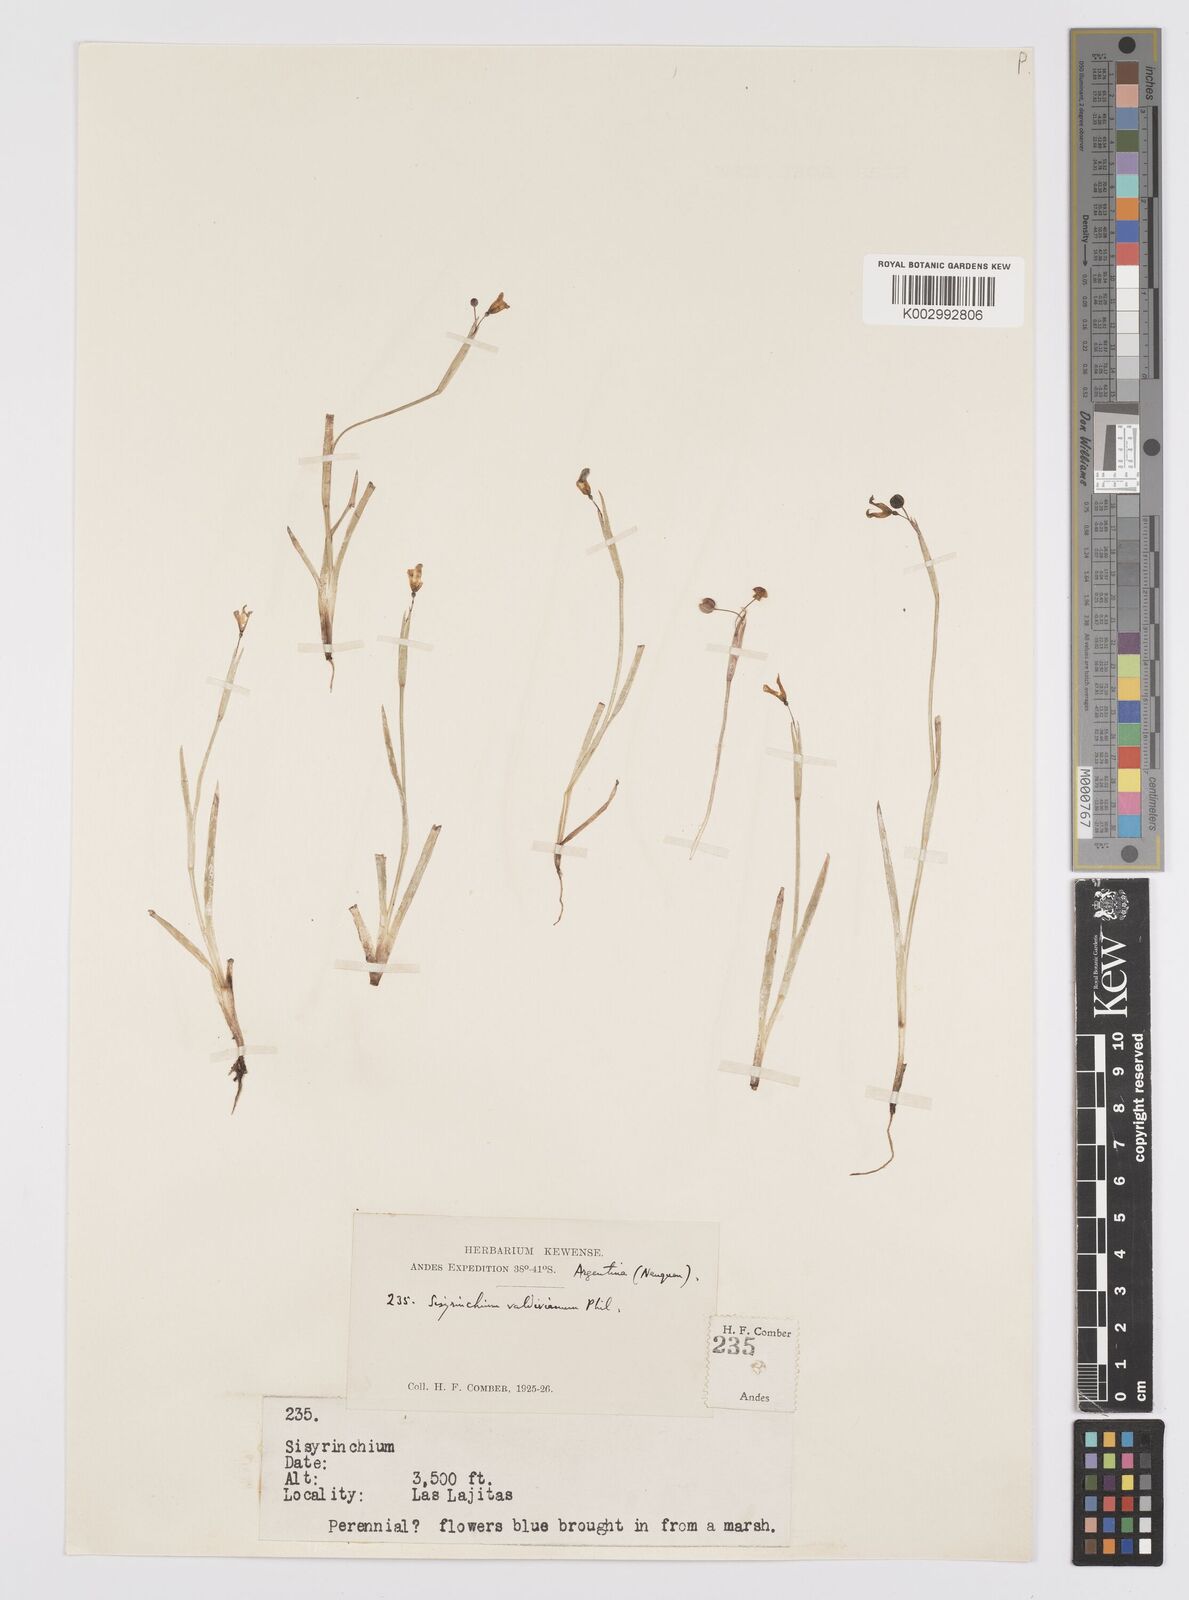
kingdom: Plantae
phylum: Tracheophyta
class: Liliopsida
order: Asparagales
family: Iridaceae
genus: Sisyrinchium
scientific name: Sisyrinchium chilense
